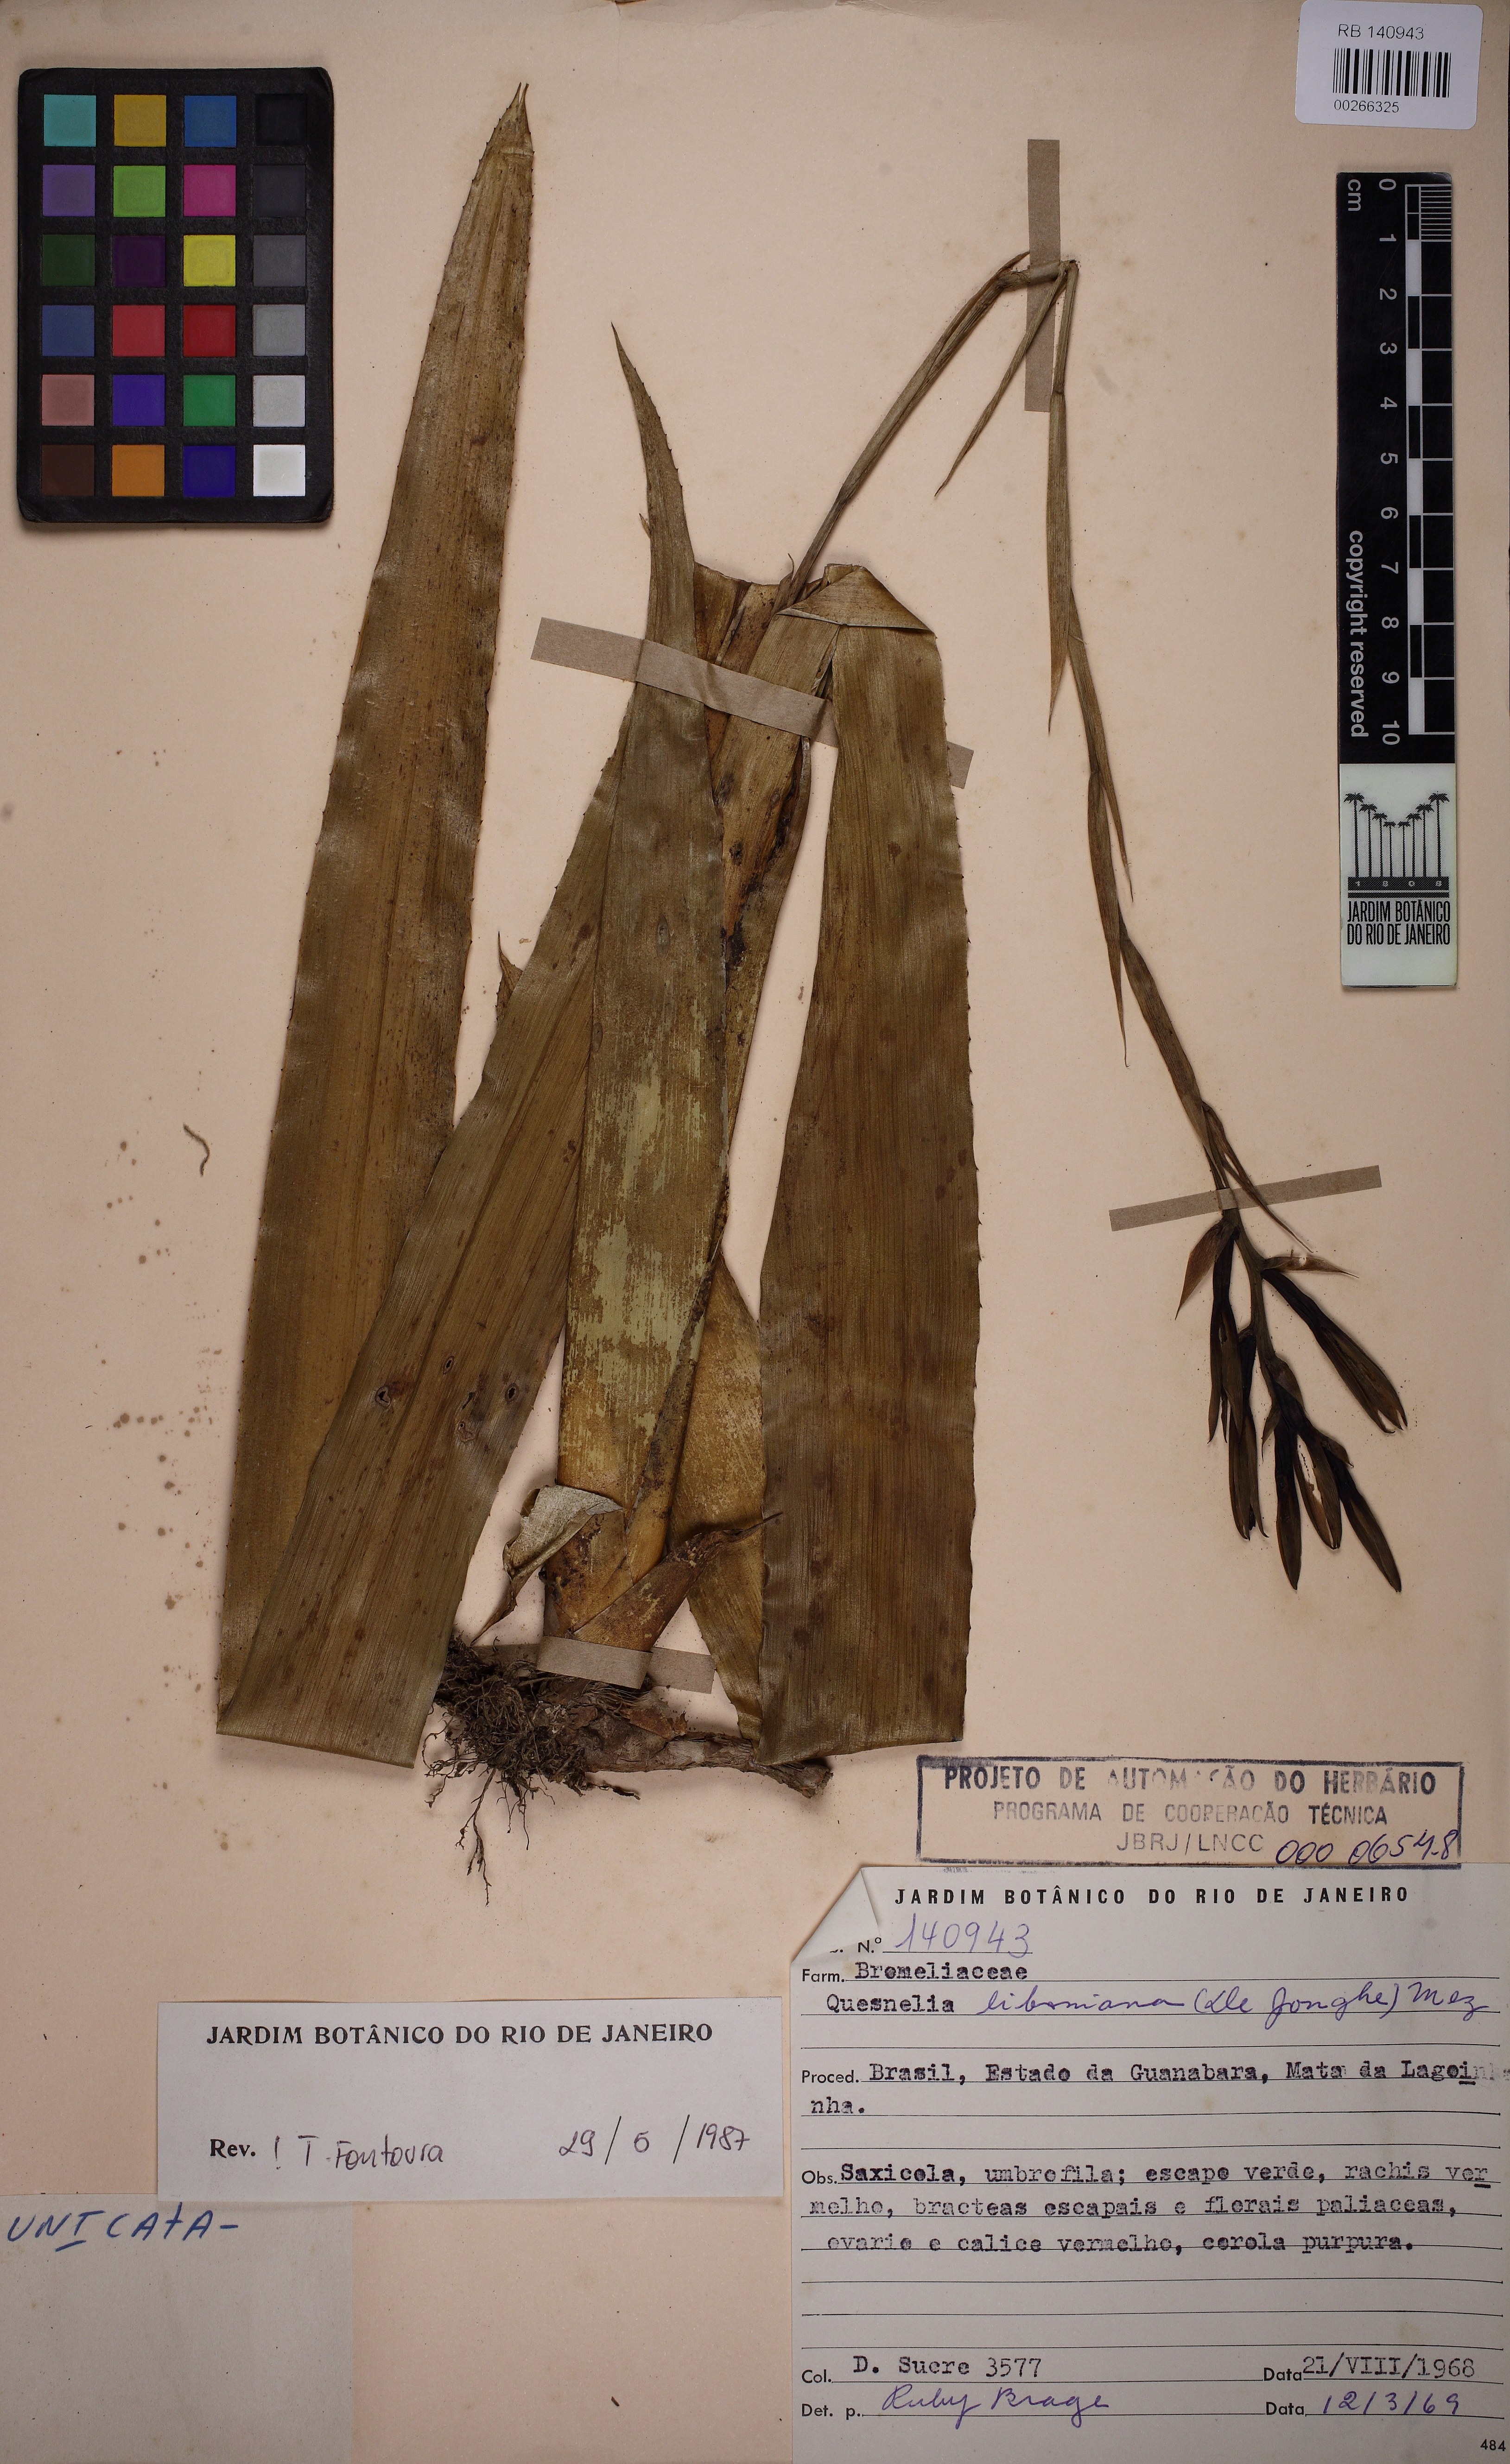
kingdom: Plantae
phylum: Tracheophyta
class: Liliopsida
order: Poales
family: Bromeliaceae
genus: Quesnelia
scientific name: Quesnelia liboniana
